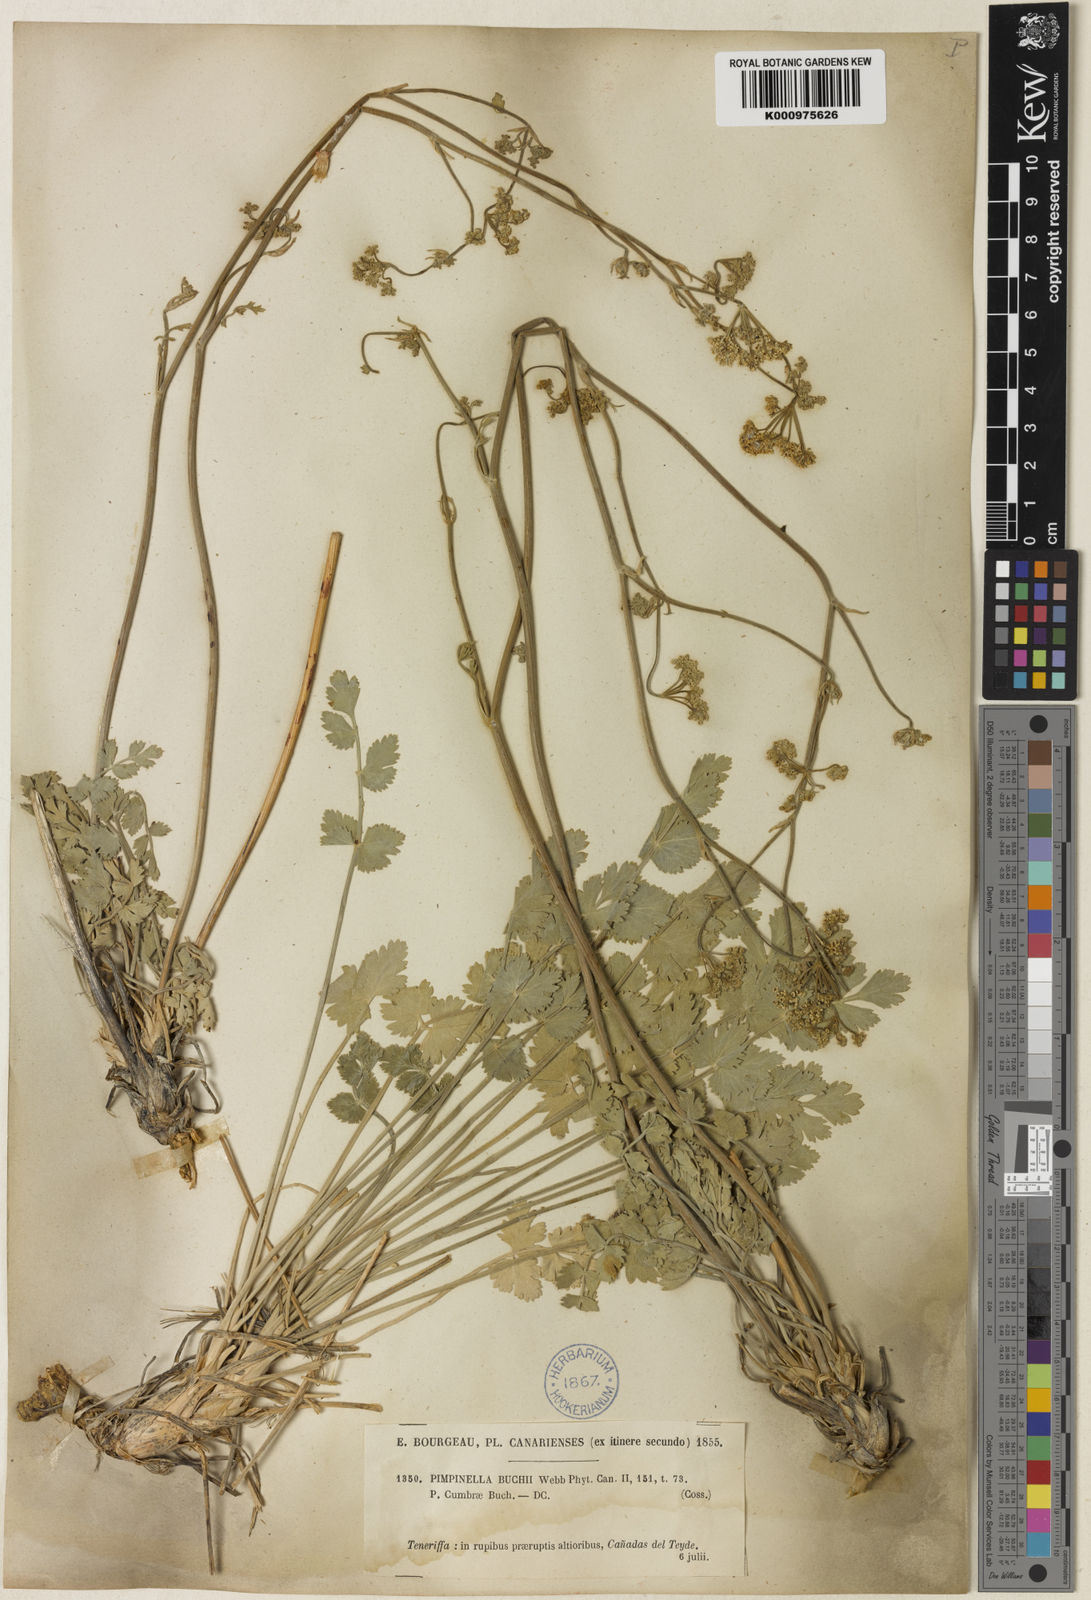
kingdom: Plantae
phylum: Tracheophyta
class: Magnoliopsida
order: Apiales
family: Apiaceae
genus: Pimpinella
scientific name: Pimpinella cumbrae
